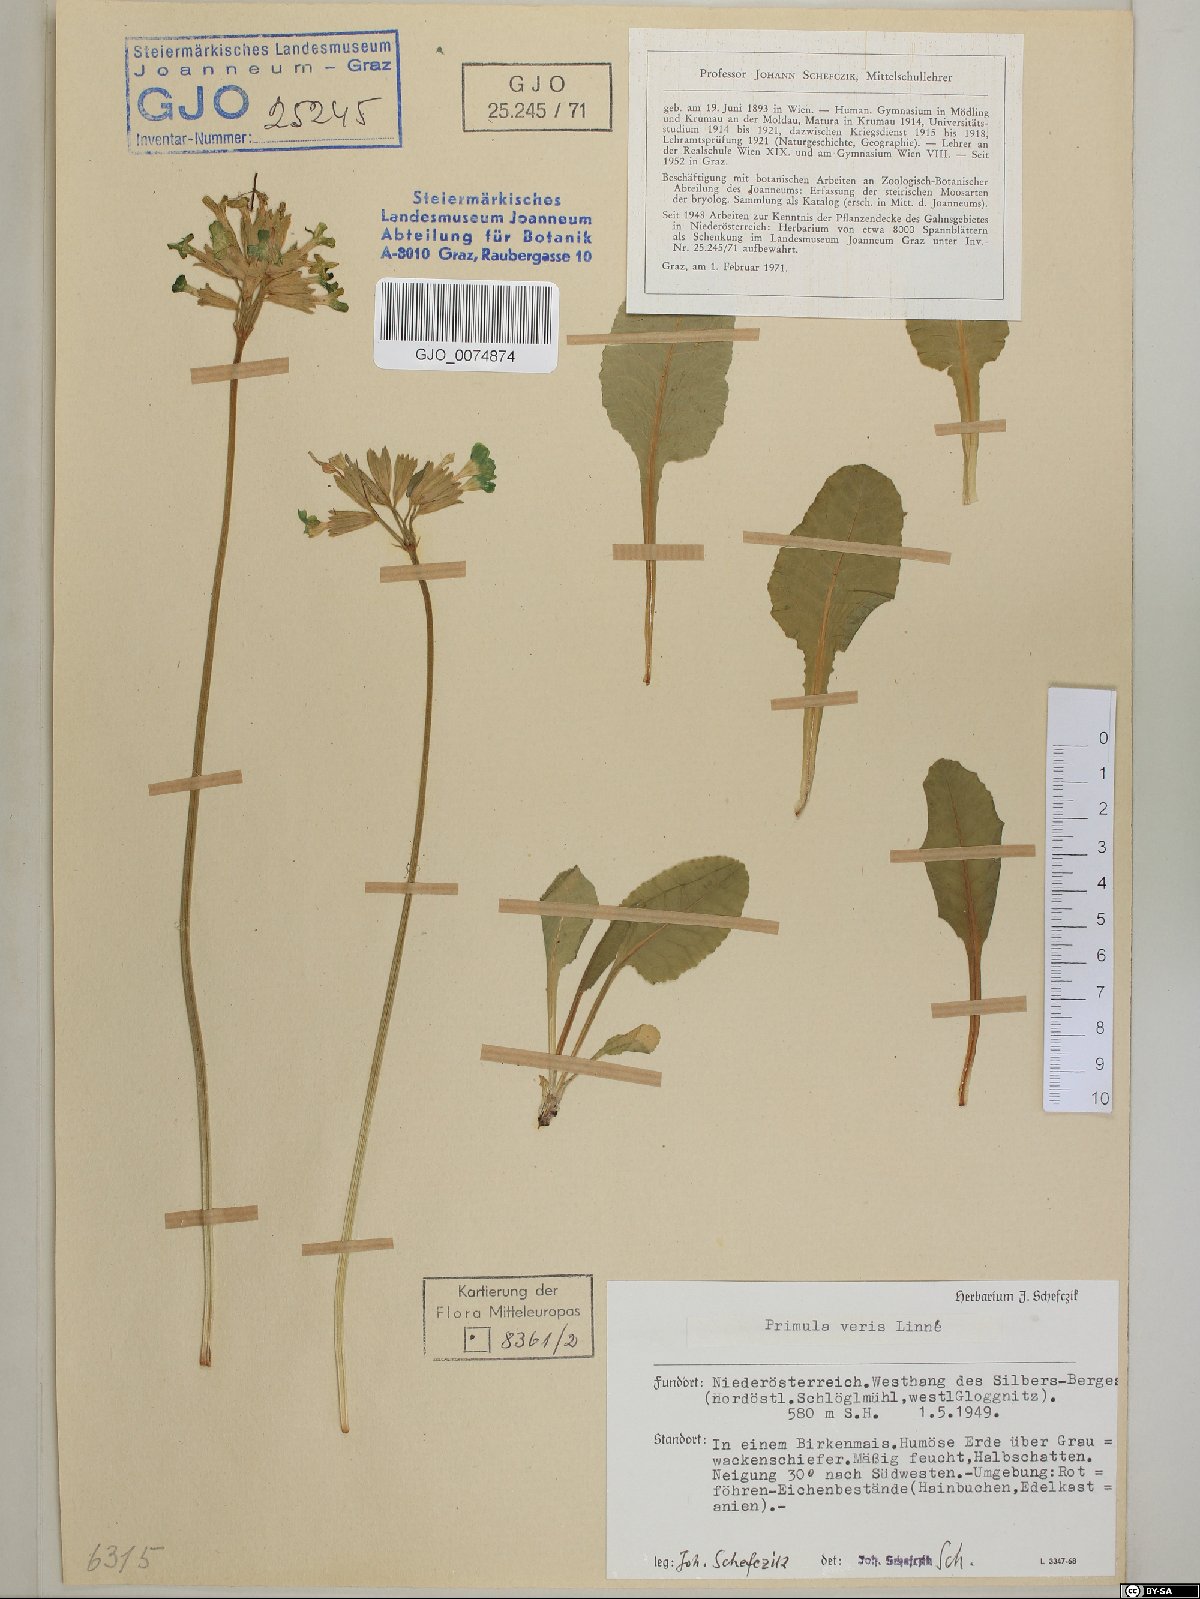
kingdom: Plantae
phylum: Tracheophyta
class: Magnoliopsida
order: Ericales
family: Primulaceae
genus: Primula
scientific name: Primula veris
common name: Cowslip
